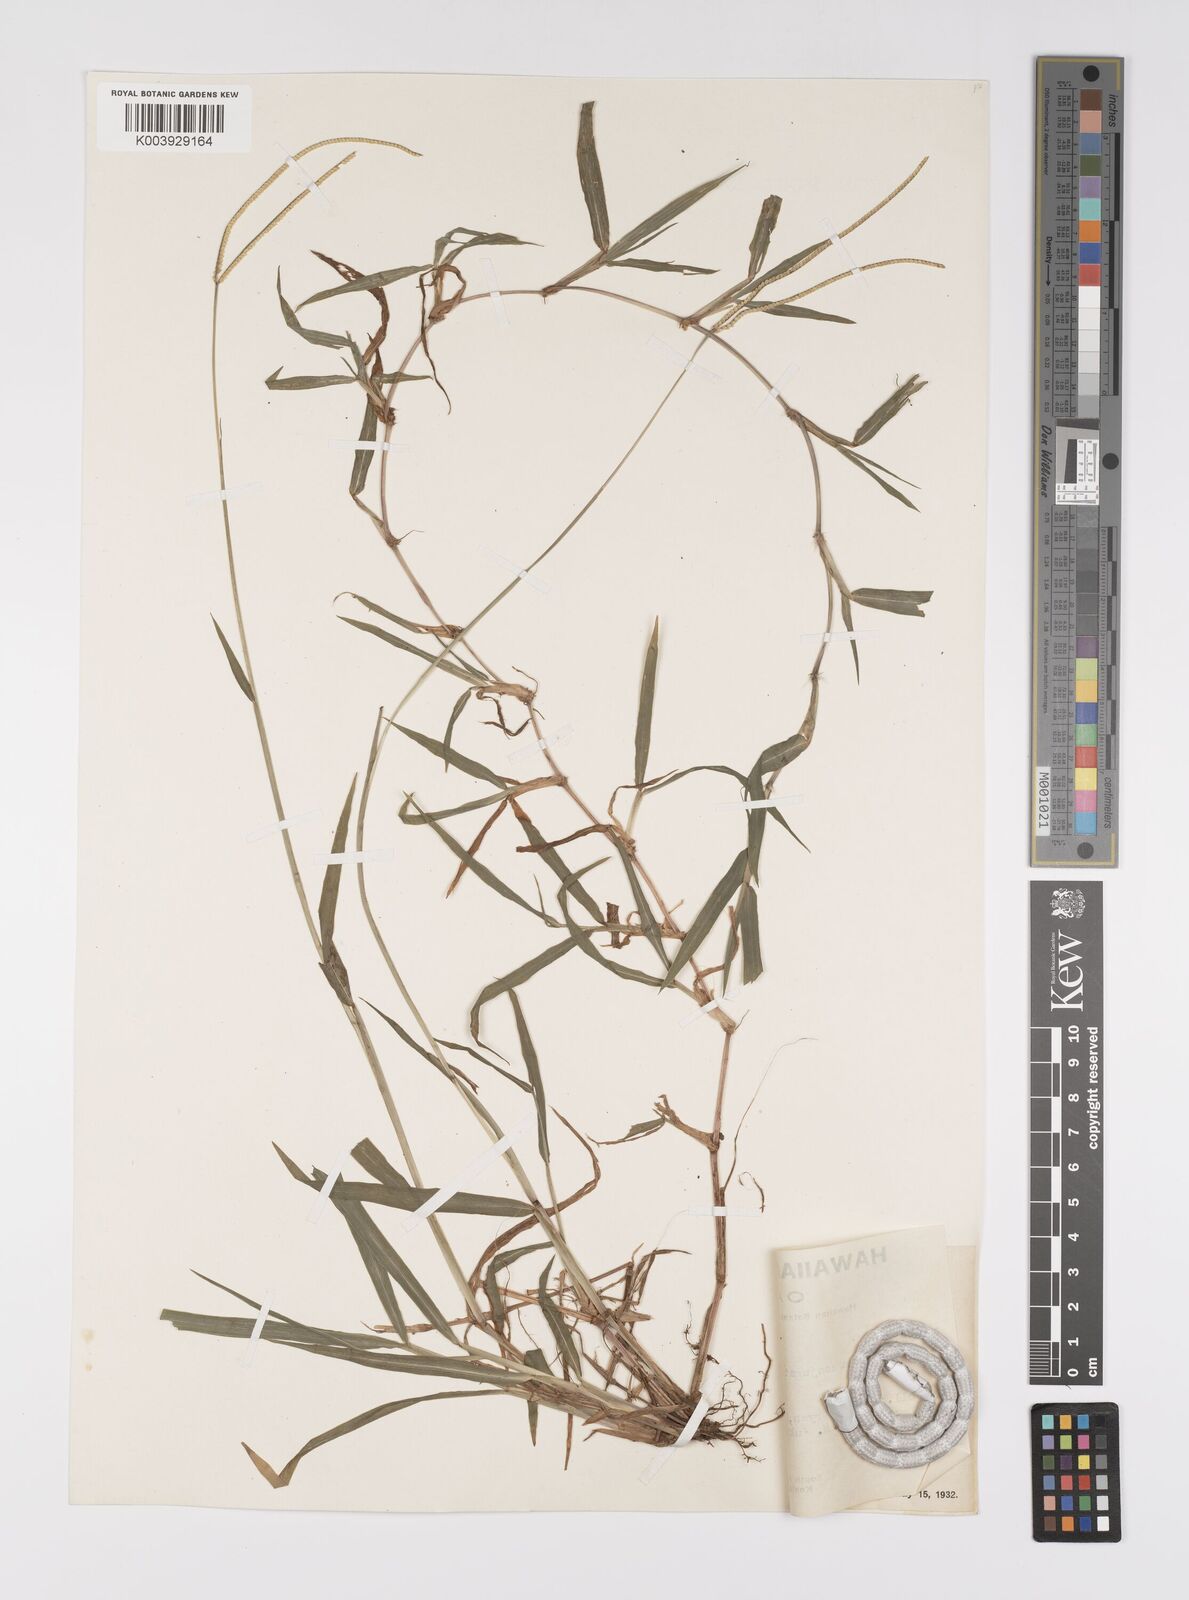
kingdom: Plantae
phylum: Tracheophyta
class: Liliopsida
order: Poales
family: Poaceae
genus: Paspalum
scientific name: Paspalum conjugatum
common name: Hilograss
